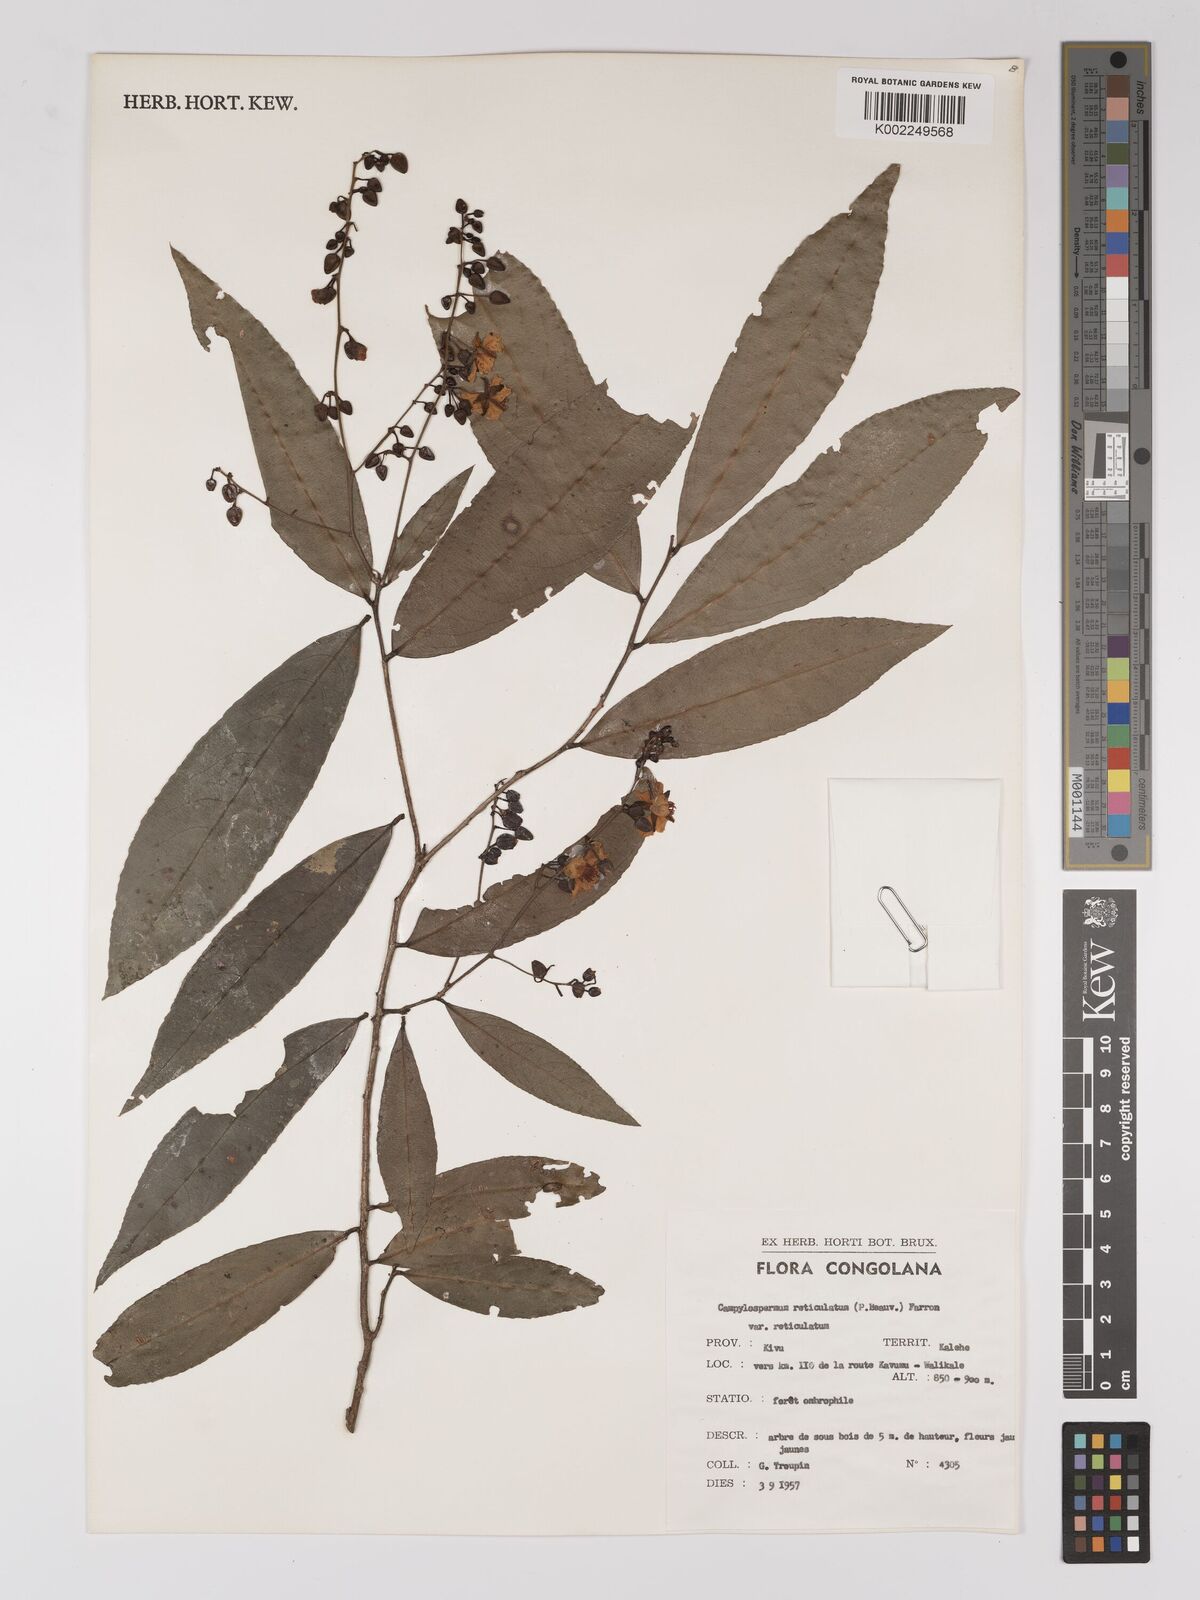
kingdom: Plantae
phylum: Tracheophyta
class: Magnoliopsida
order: Malpighiales
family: Ochnaceae
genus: Campylospermum
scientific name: Campylospermum reticulatum
